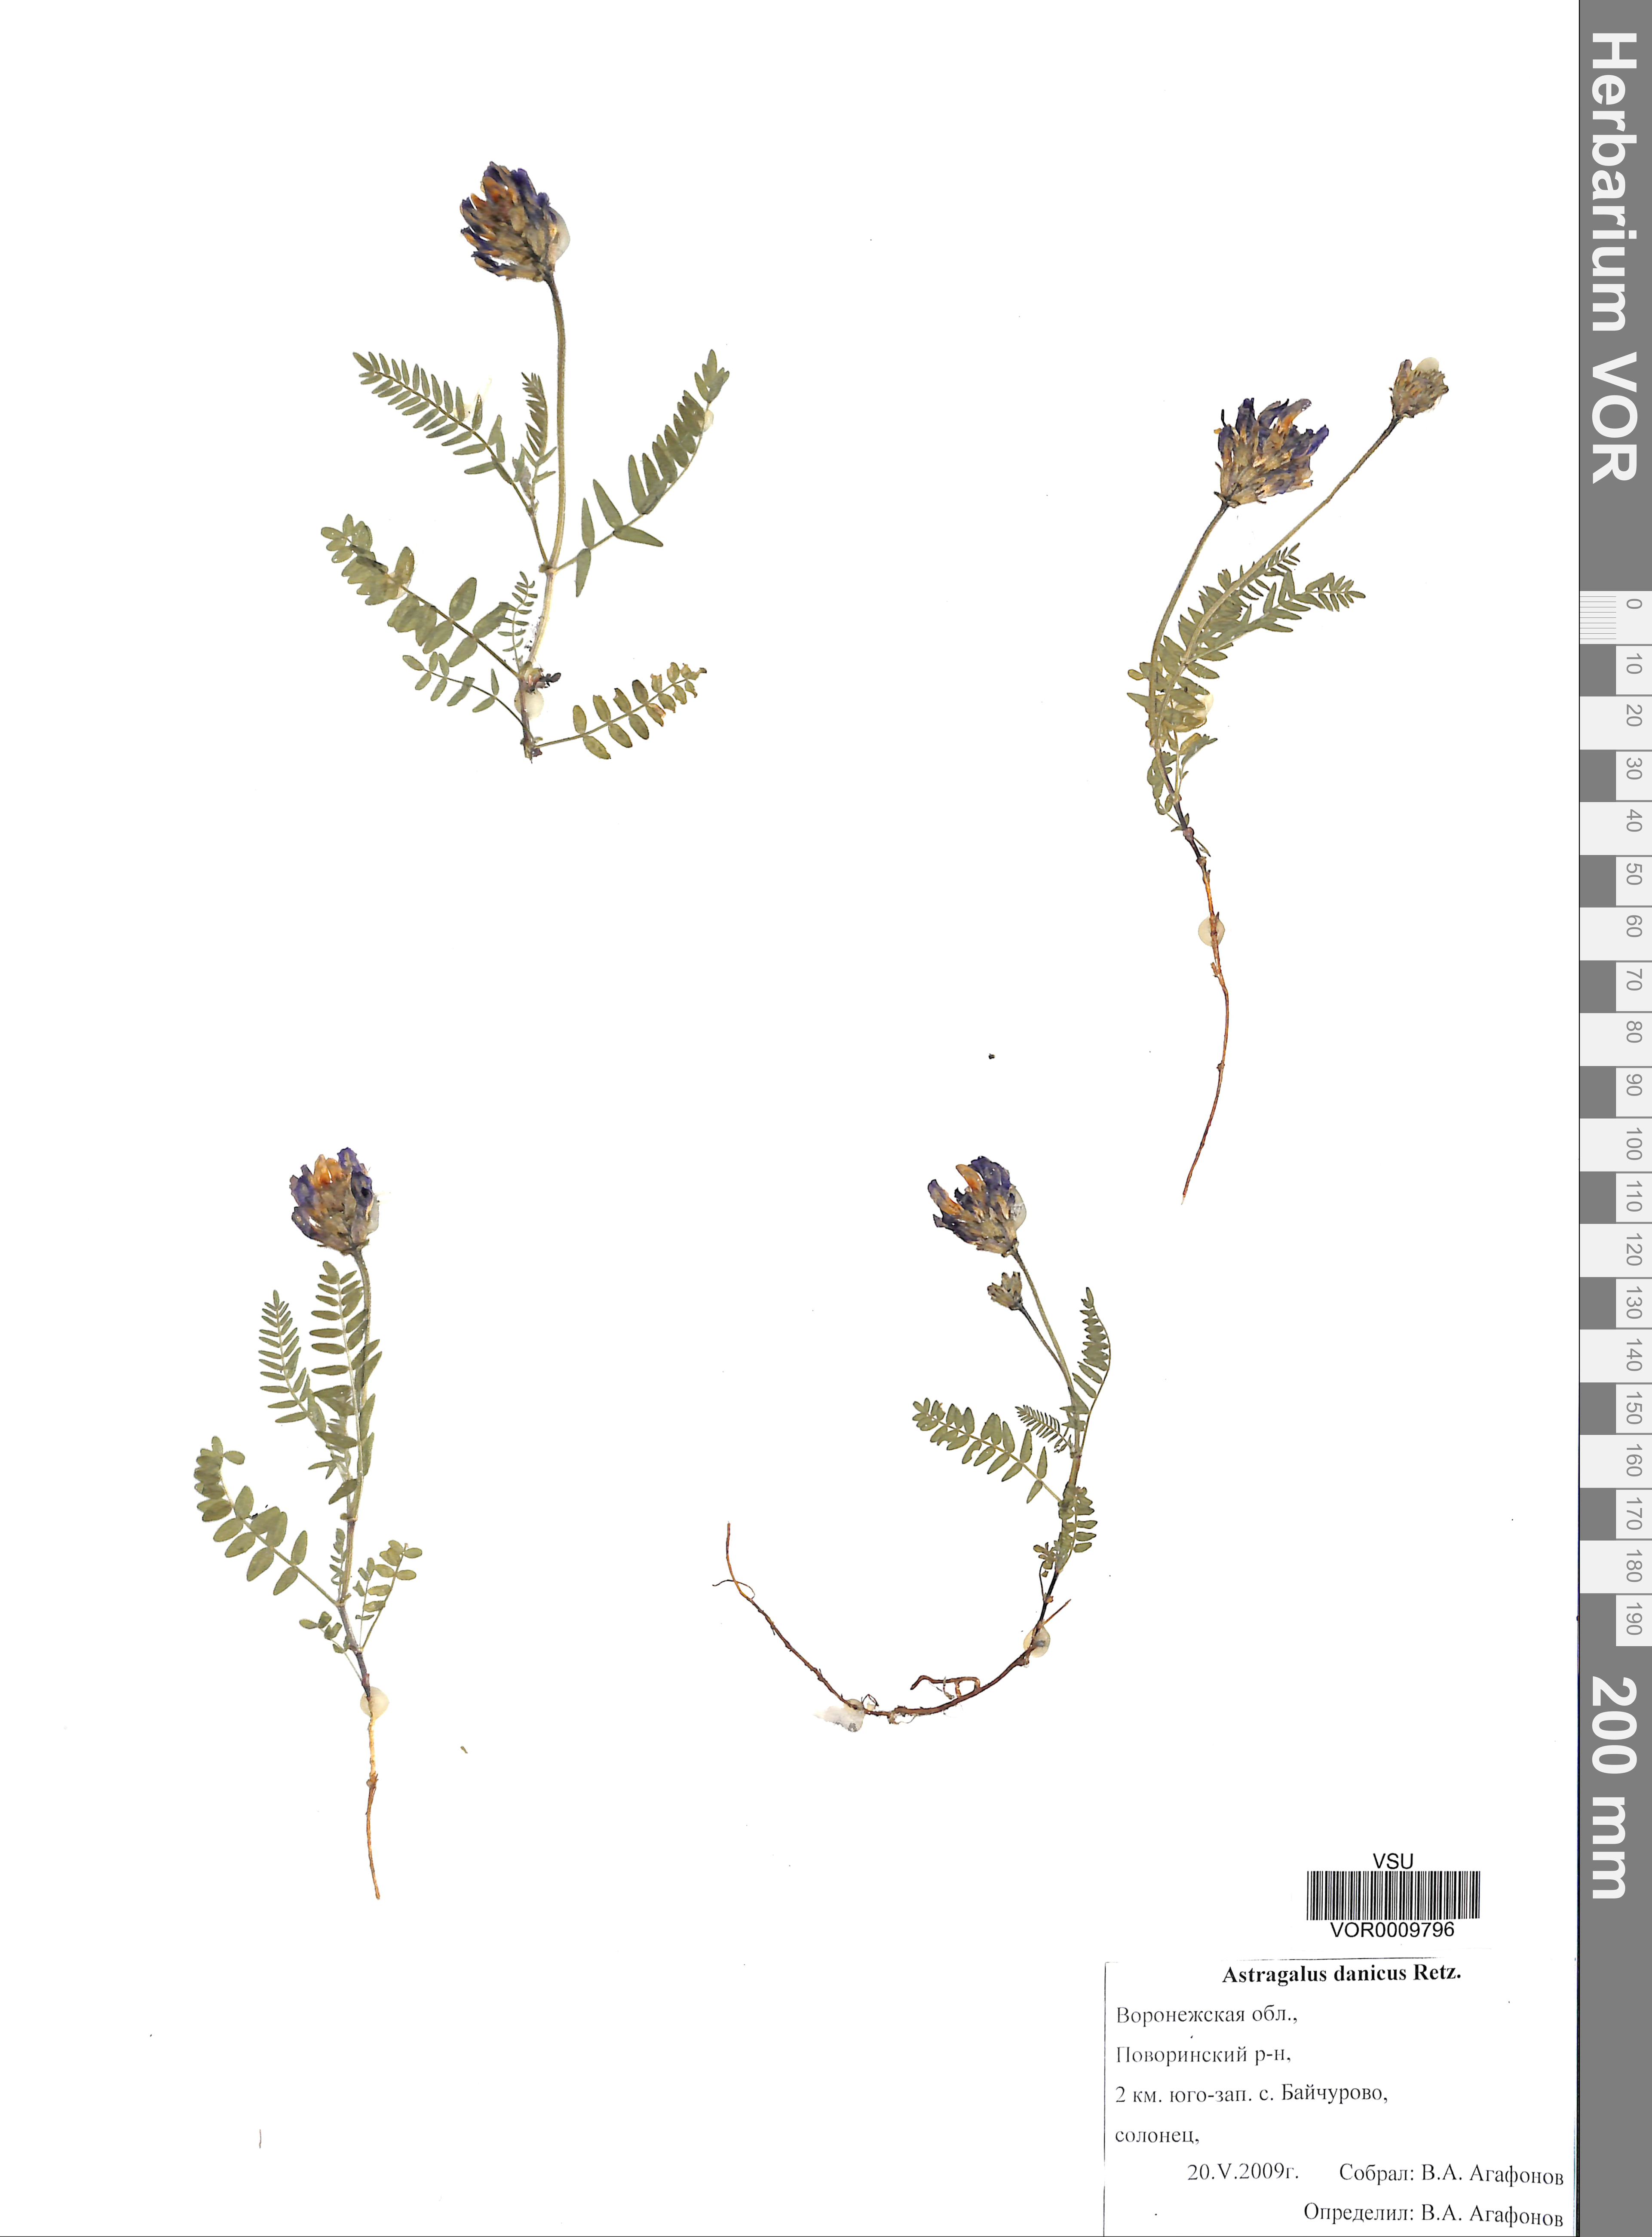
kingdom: Plantae
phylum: Tracheophyta
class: Magnoliopsida
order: Fabales
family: Fabaceae
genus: Astragalus
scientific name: Astragalus danicus
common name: Purple milk-vetch
